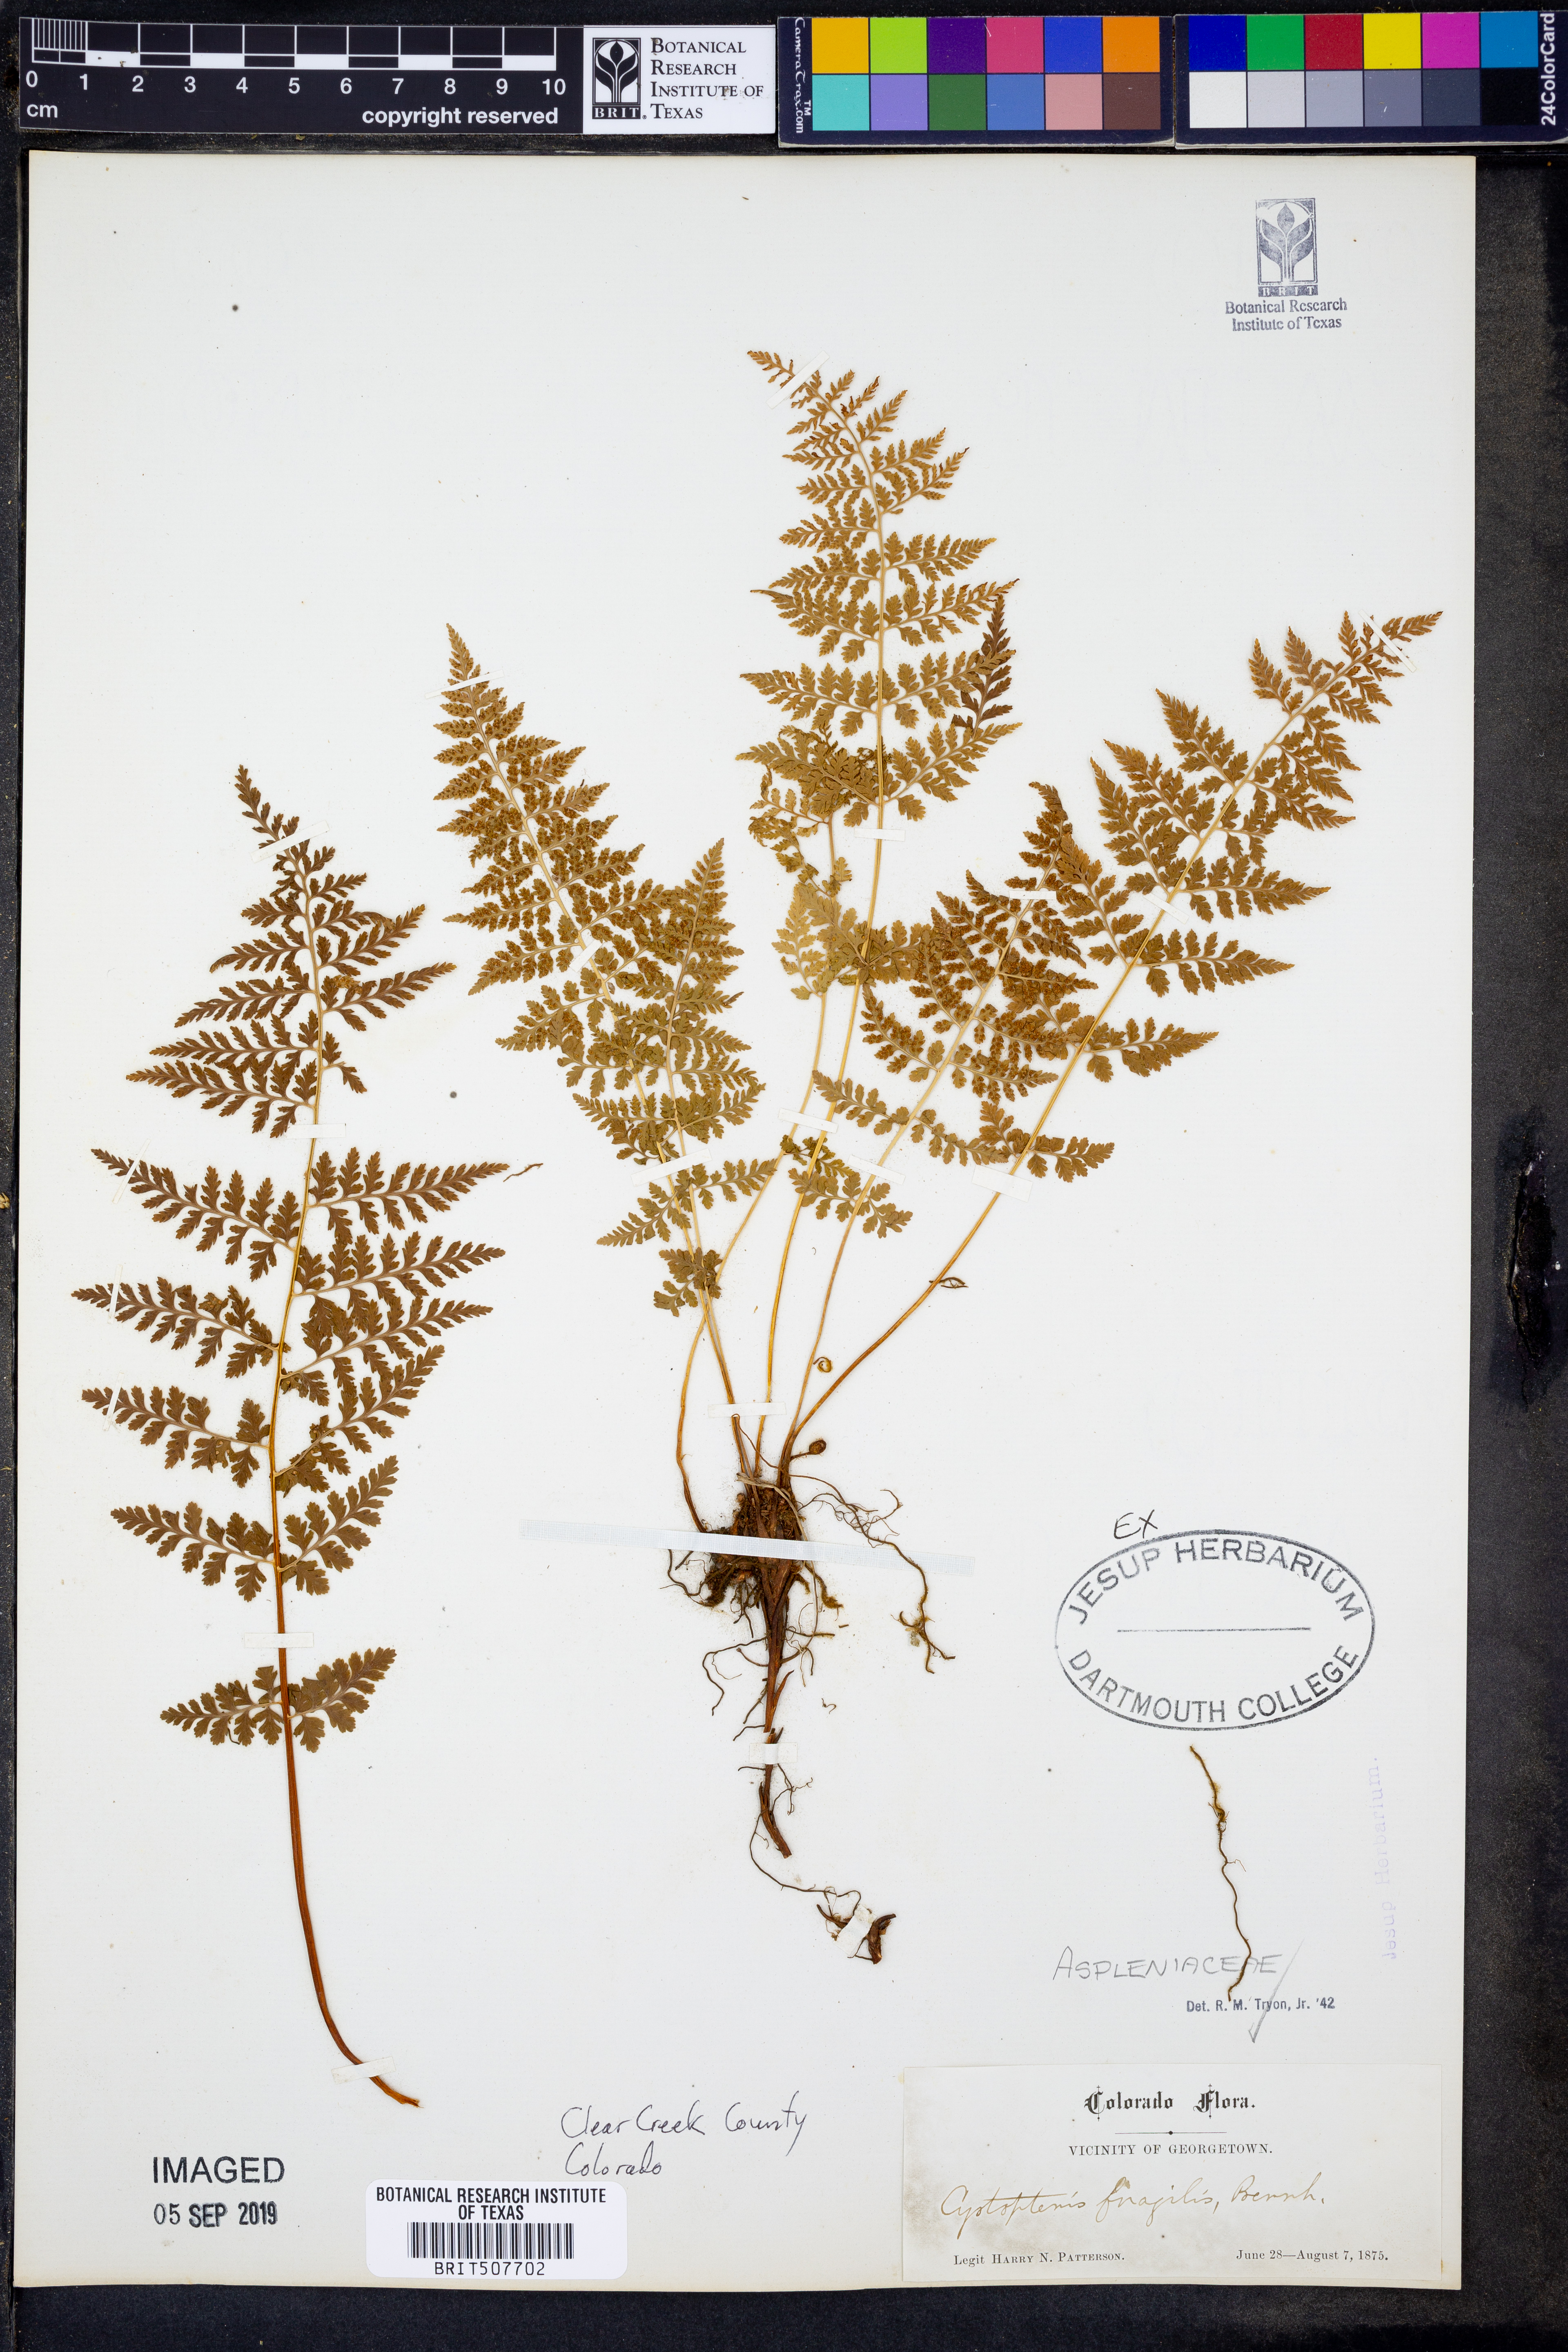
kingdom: Plantae
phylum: Tracheophyta
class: Polypodiopsida
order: Polypodiales
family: Cystopteridaceae
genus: Cystopteris
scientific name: Cystopteris fragilis
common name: Brittle bladder fern
